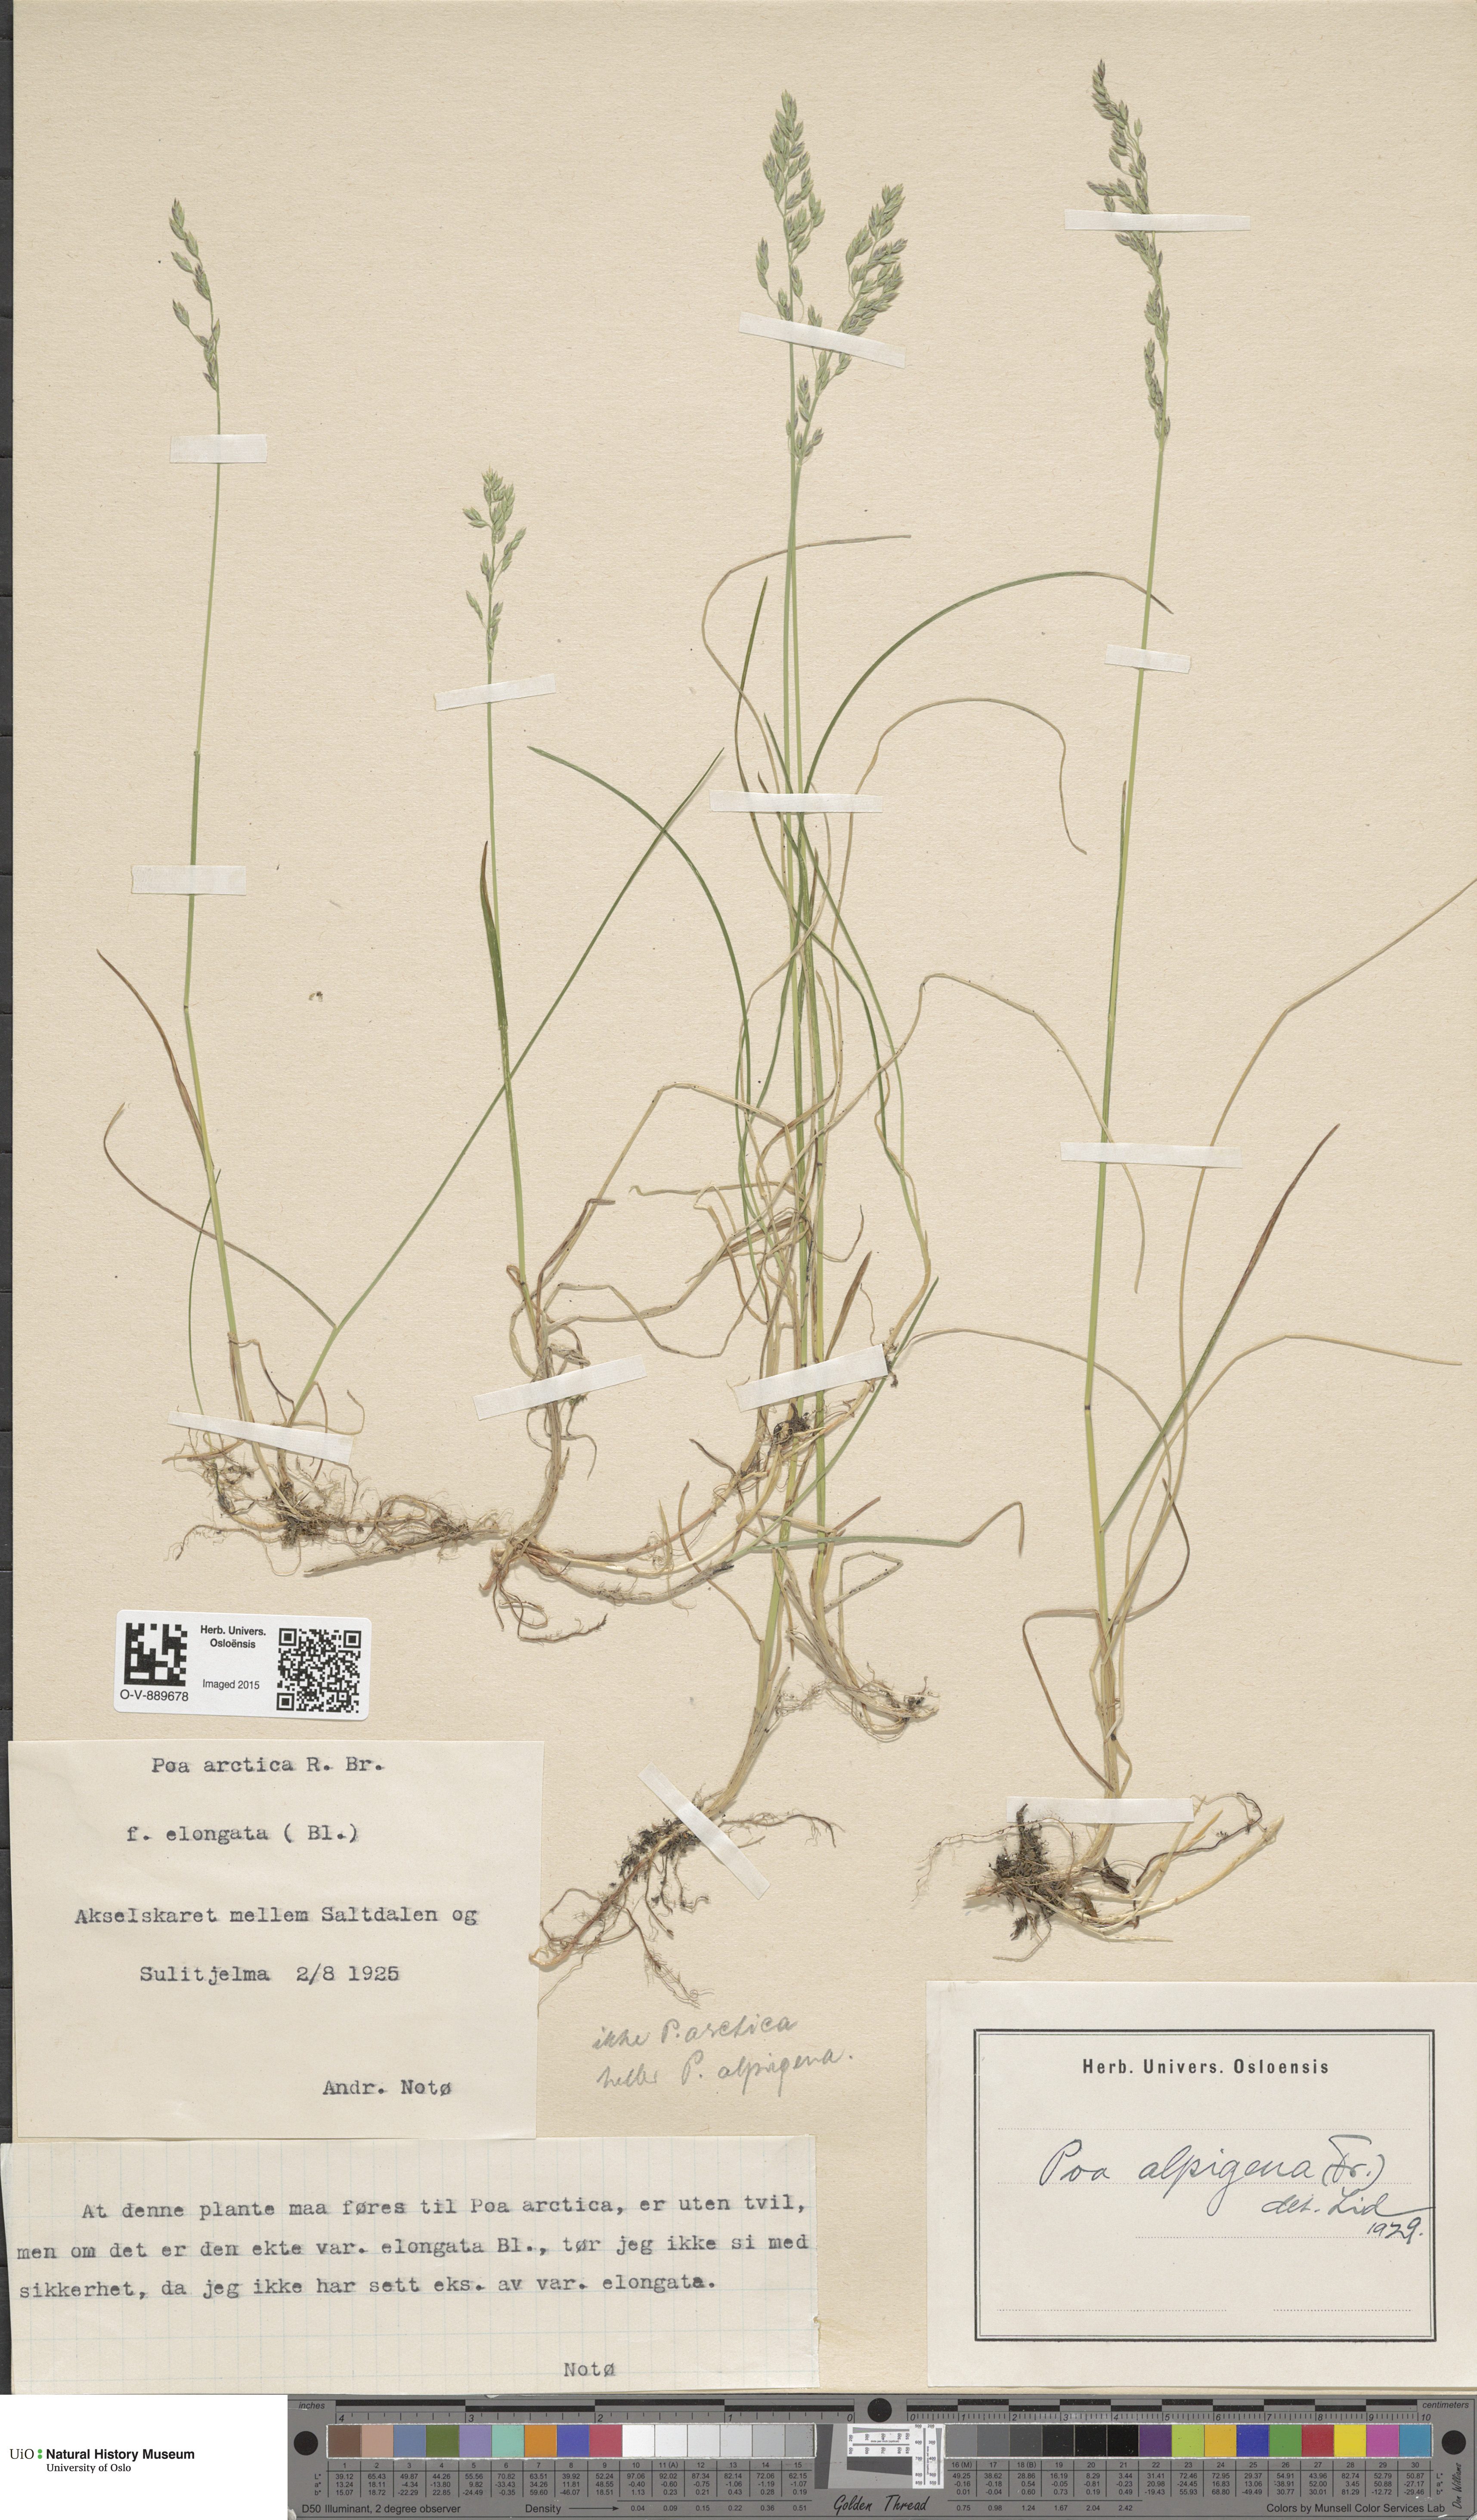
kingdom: Plantae
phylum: Tracheophyta
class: Liliopsida
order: Poales
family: Poaceae
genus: Poa
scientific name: Poa alpigena
